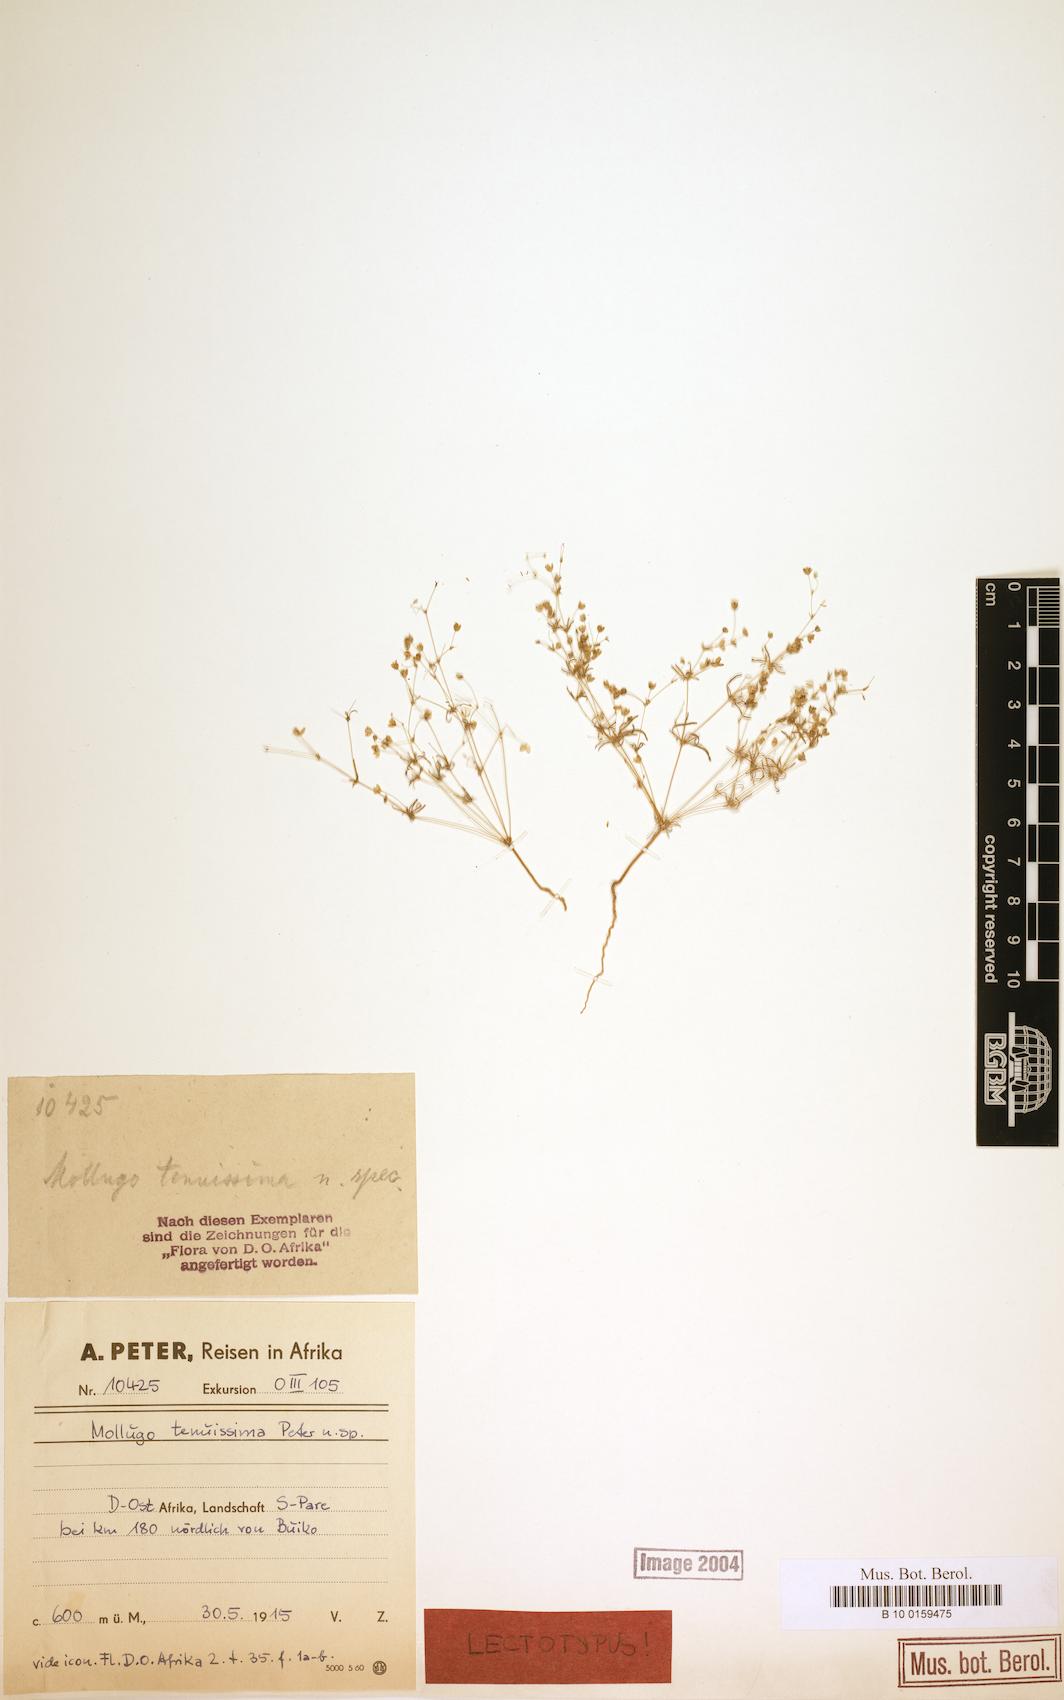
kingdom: Plantae
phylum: Tracheophyta
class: Magnoliopsida
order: Caryophyllales
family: Molluginaceae
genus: Hypertelis
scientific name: Hypertelis cerviana
